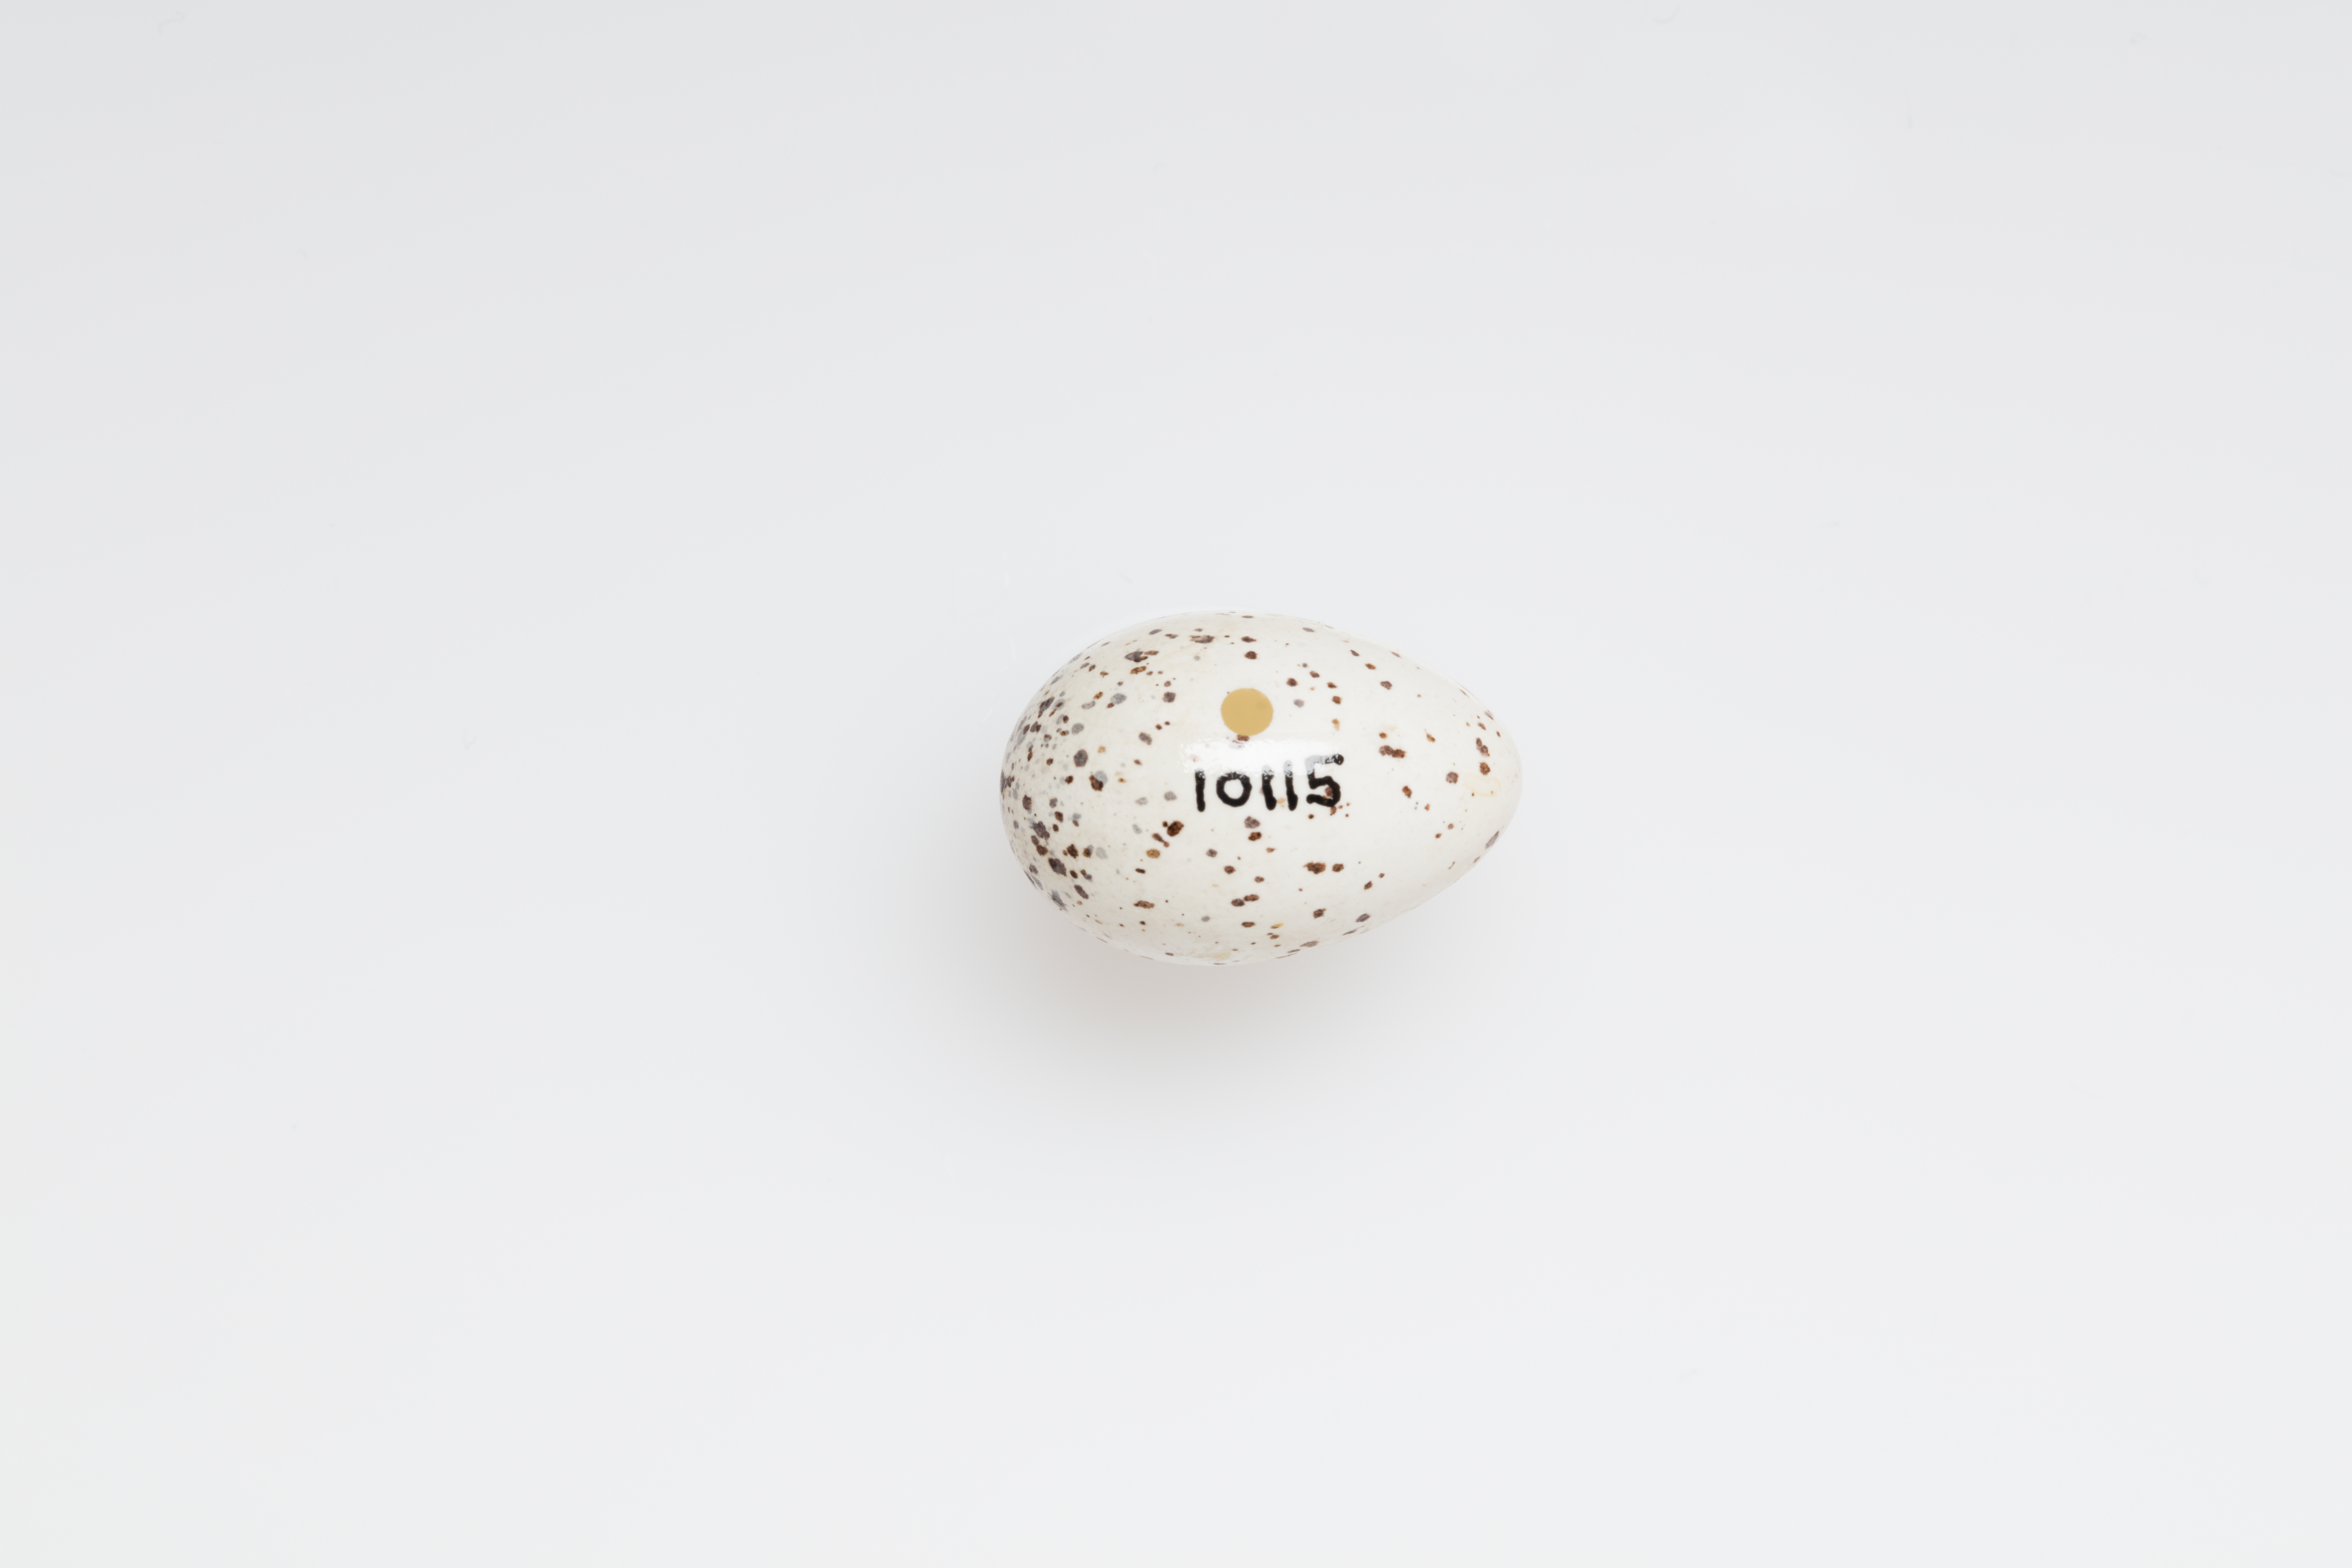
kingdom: Animalia
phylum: Chordata
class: Aves
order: Passeriformes
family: Hirundinidae
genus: Hirundo
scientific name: Hirundo rustica
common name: Barn swallow
